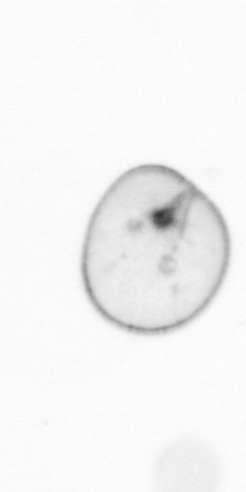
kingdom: Chromista
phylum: Myzozoa
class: Dinophyceae
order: Noctilucales
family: Noctilucaceae
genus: Noctiluca
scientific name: Noctiluca scintillans
